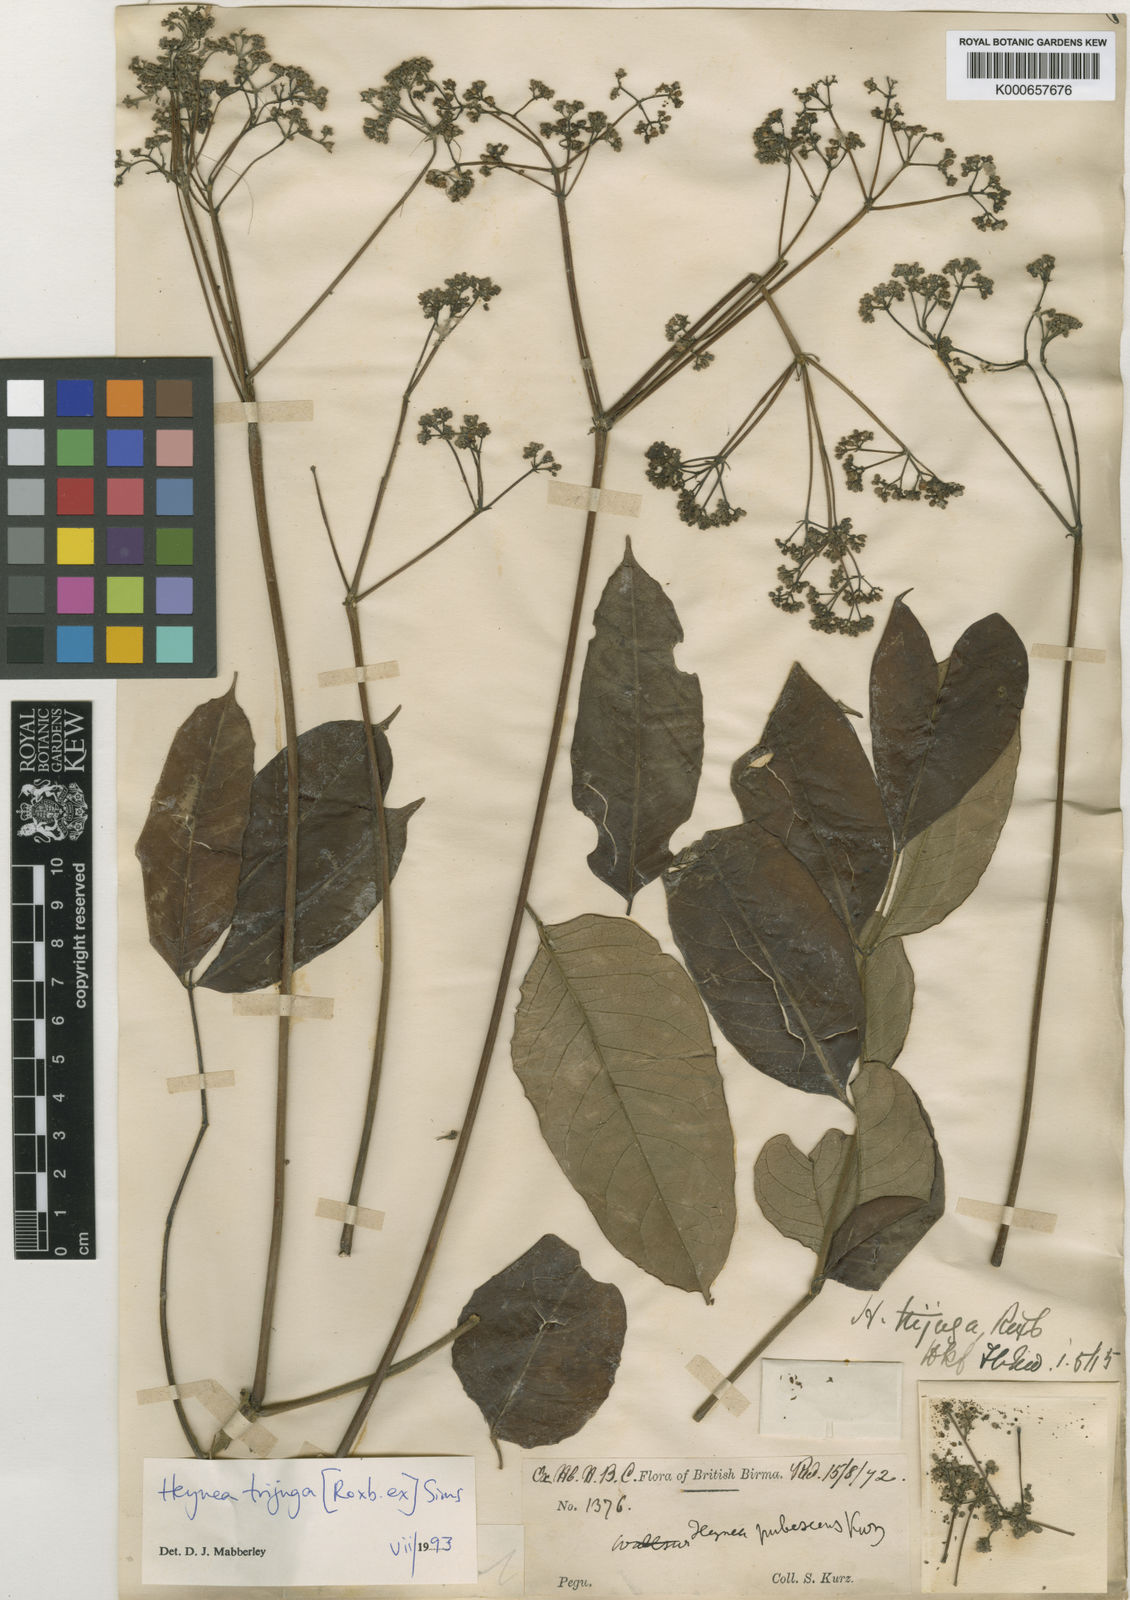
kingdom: Plantae
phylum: Tracheophyta
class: Magnoliopsida
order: Sapindales
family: Meliaceae
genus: Heynea
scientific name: Heynea trijuga
